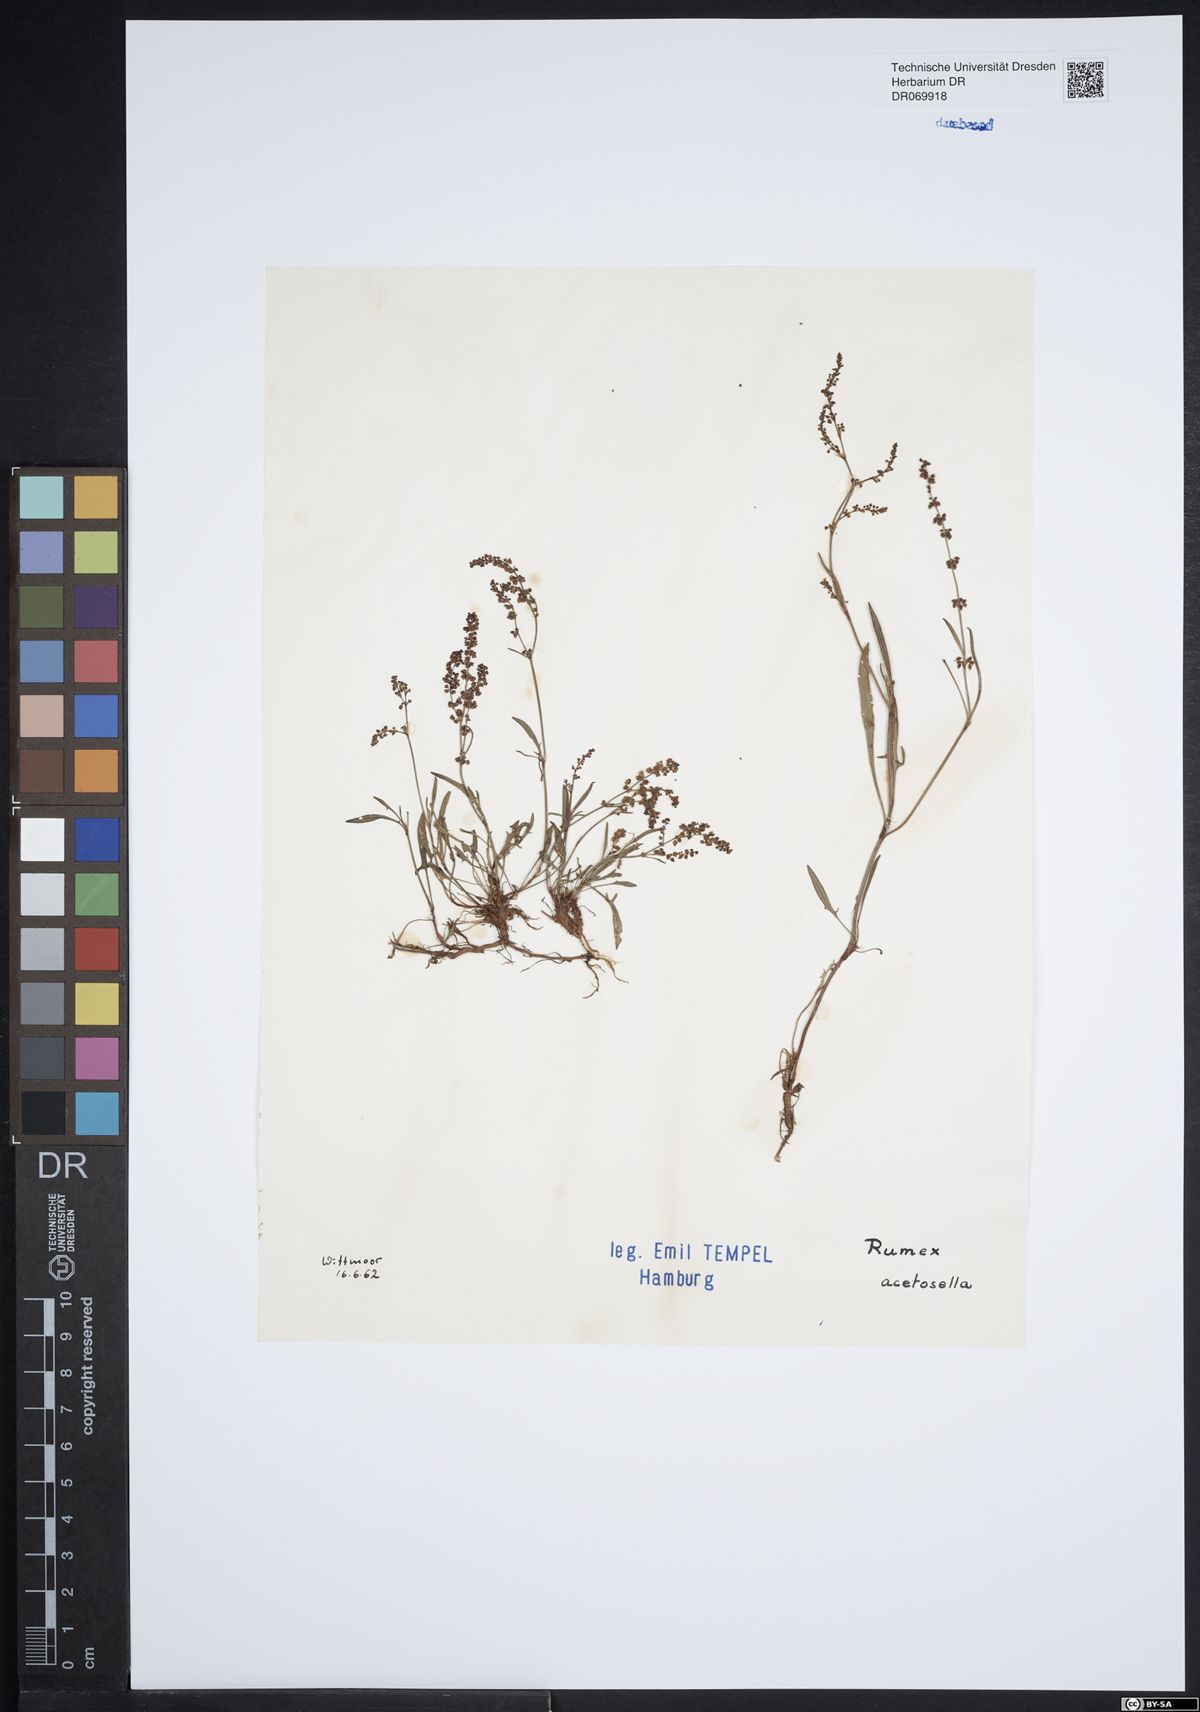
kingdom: Plantae
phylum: Tracheophyta
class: Magnoliopsida
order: Caryophyllales
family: Polygonaceae
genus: Rumex
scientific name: Rumex acetosella
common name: Common sheep sorrel
